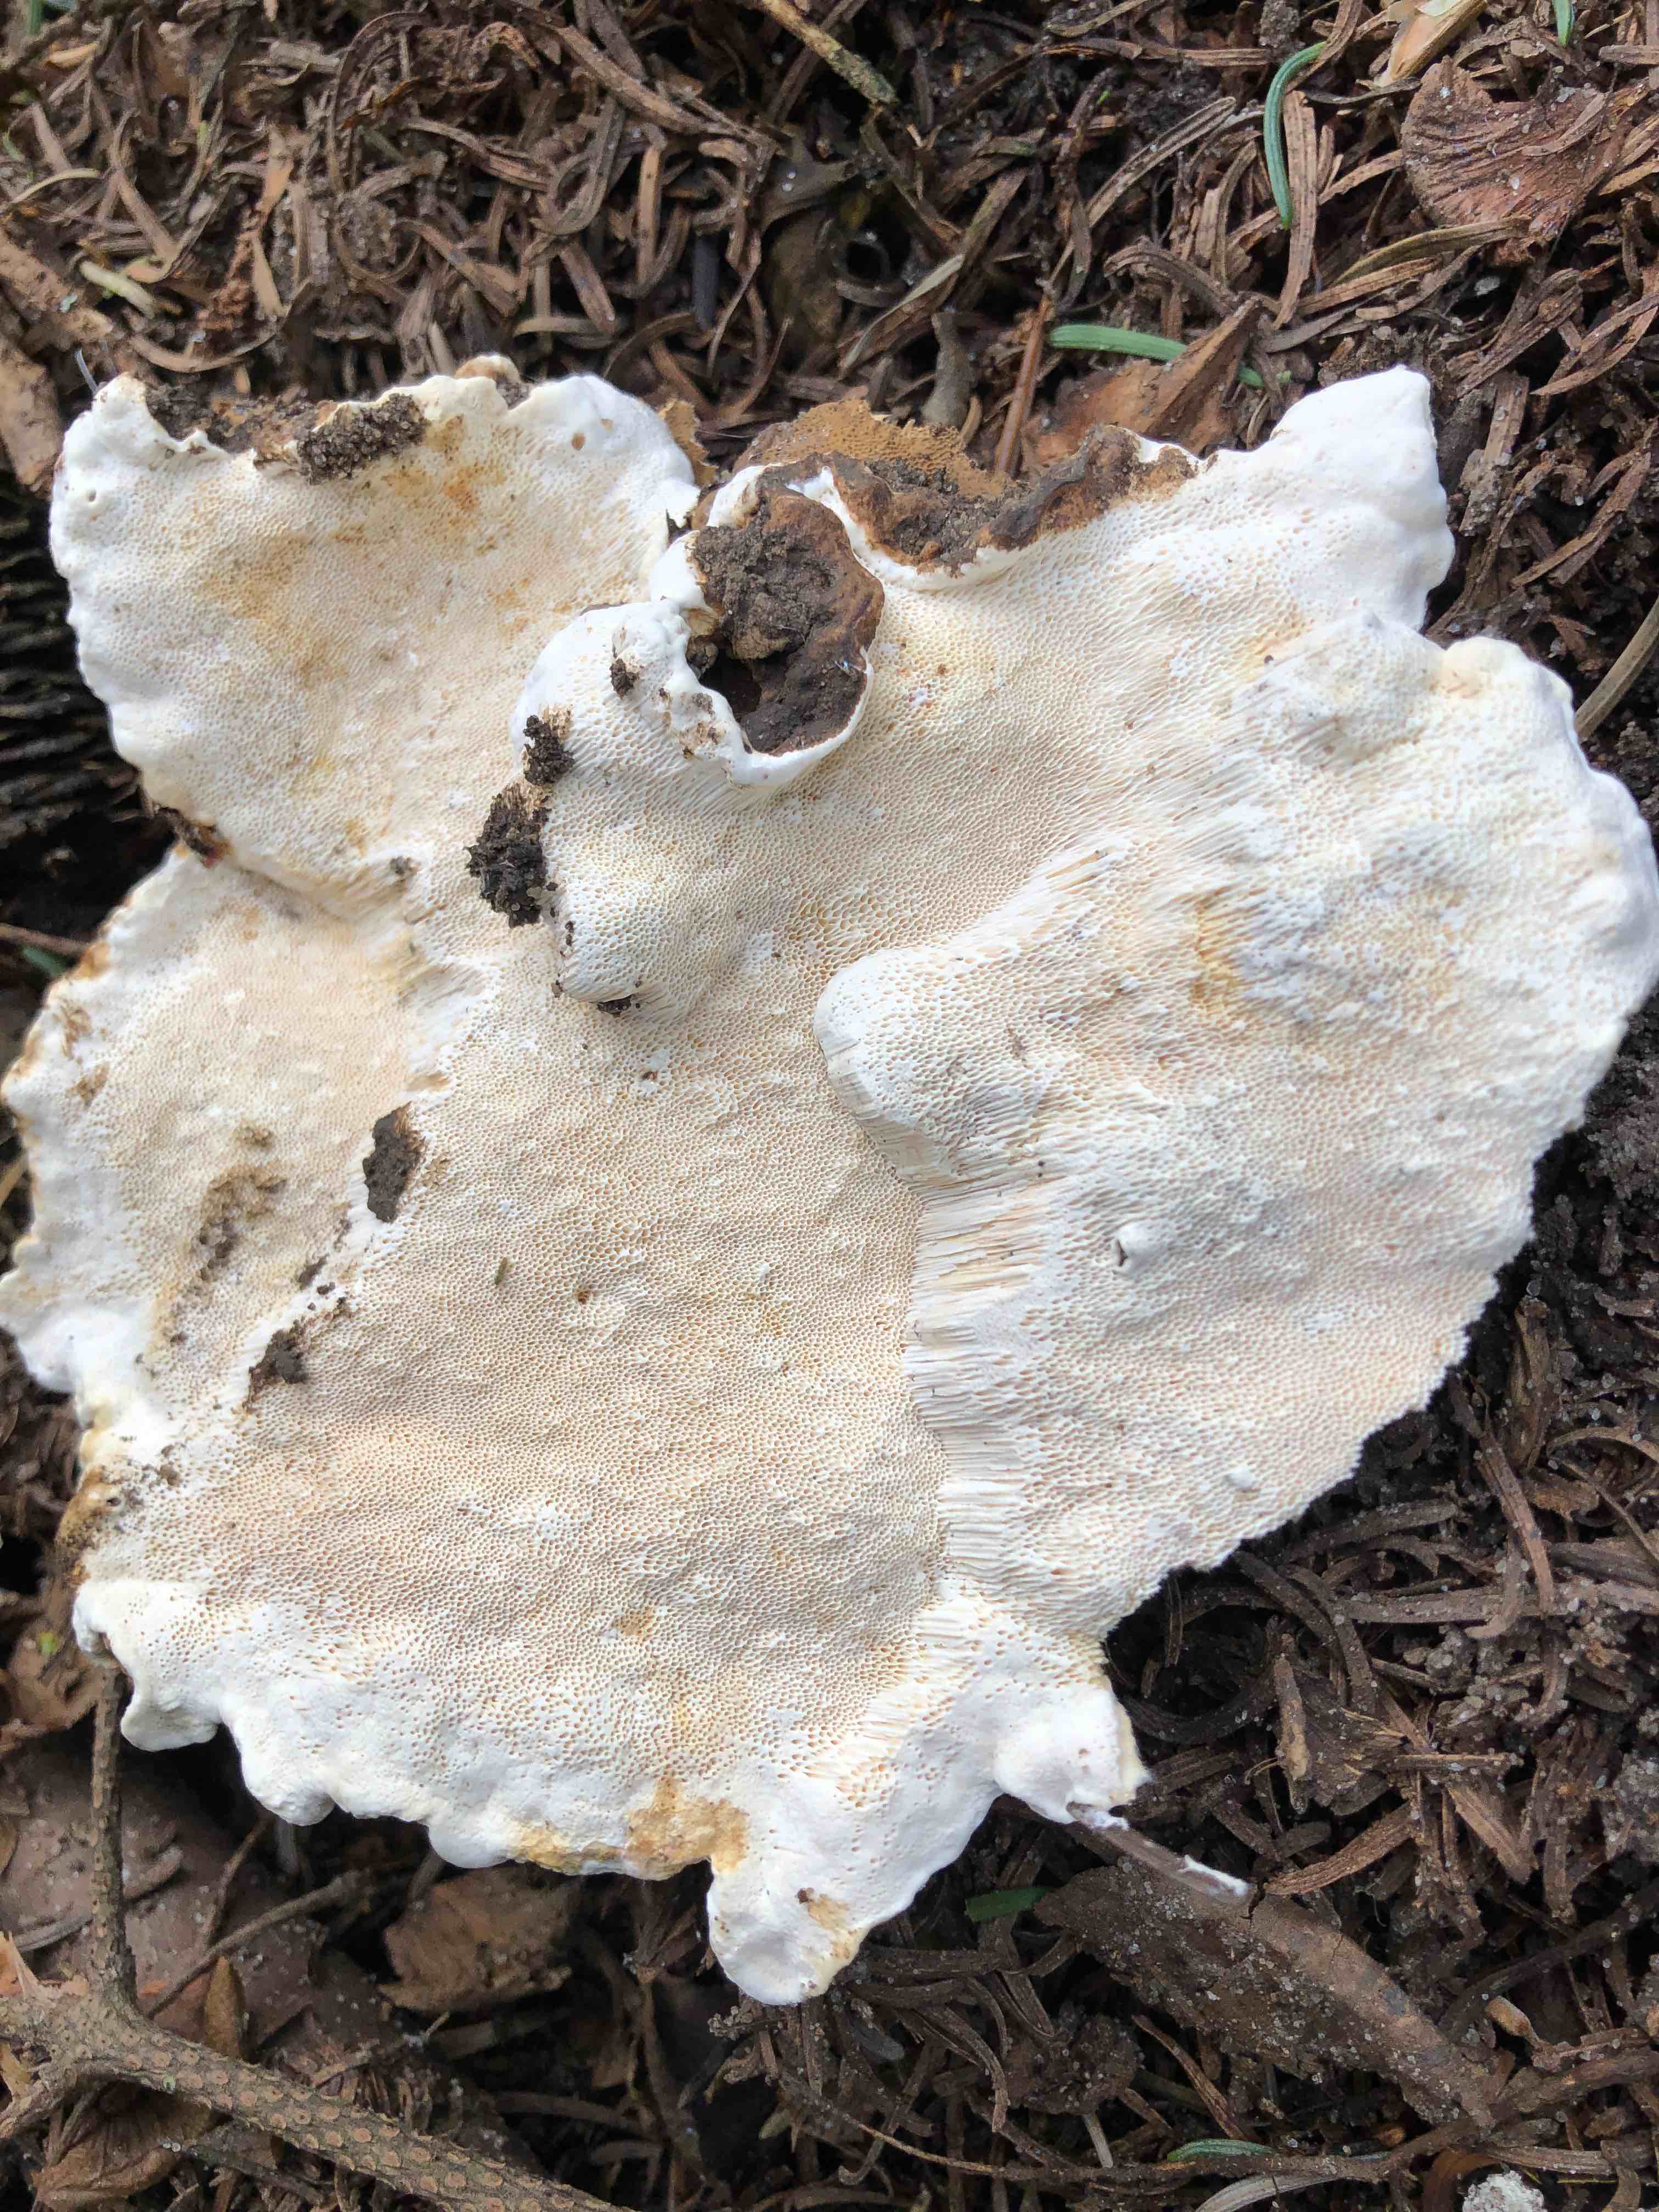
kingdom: Fungi
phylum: Basidiomycota
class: Agaricomycetes
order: Russulales
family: Bondarzewiaceae
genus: Heterobasidion
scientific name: Heterobasidion annosum
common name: almindelig rodfordærver
